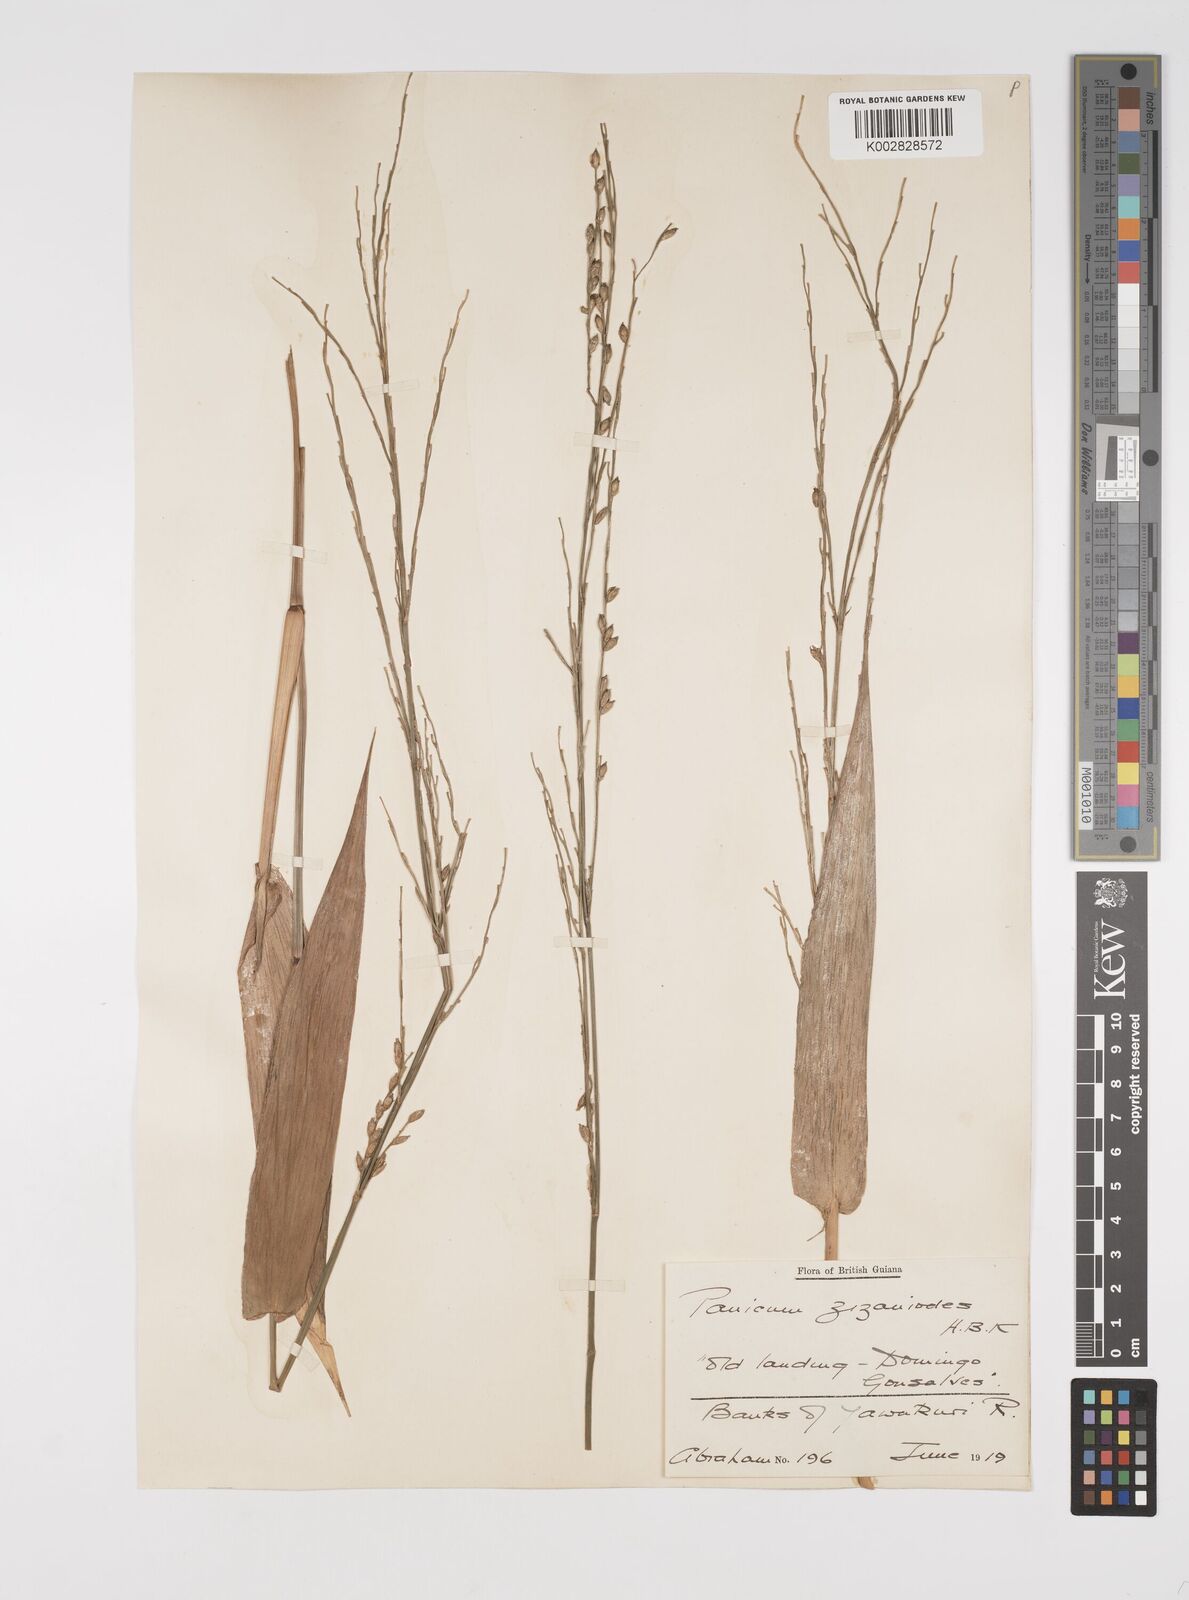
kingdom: Plantae
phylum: Tracheophyta
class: Liliopsida
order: Poales
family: Poaceae
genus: Acroceras
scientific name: Acroceras zizanioides
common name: Oat grass
